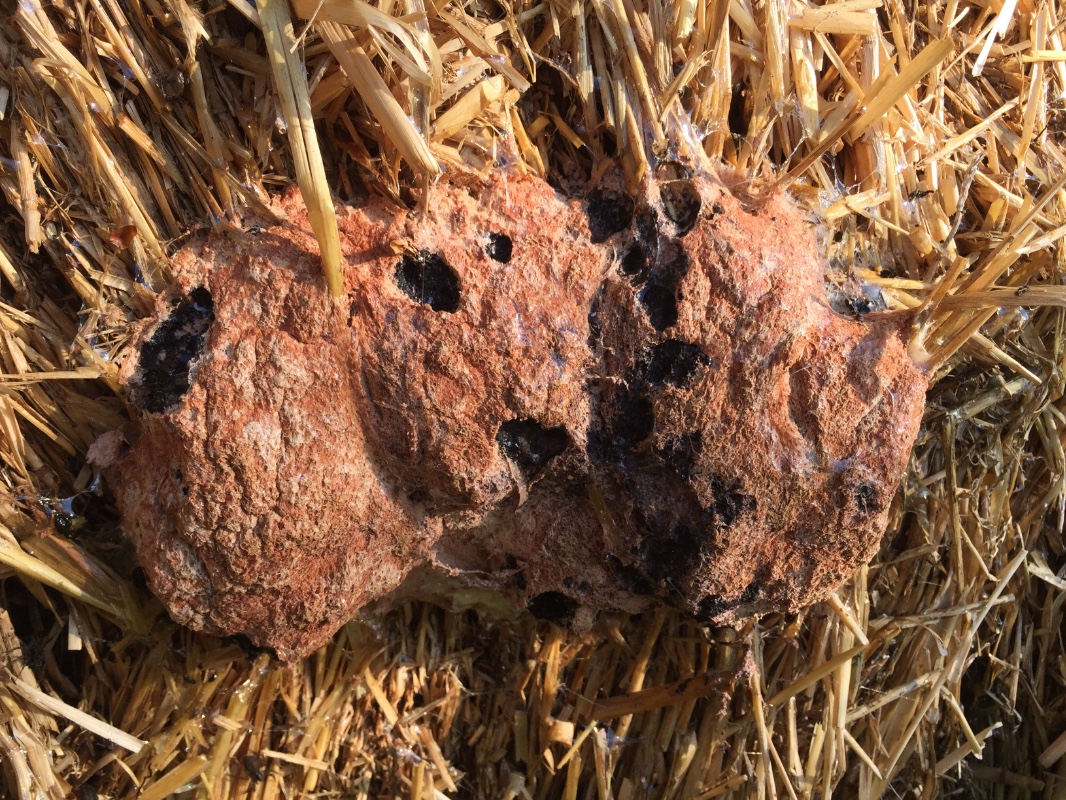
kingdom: Protozoa
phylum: Mycetozoa
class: Myxomycetes
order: Physarales
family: Physaraceae
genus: Fuligo
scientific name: Fuligo septica
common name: Dog vomit slime mold
